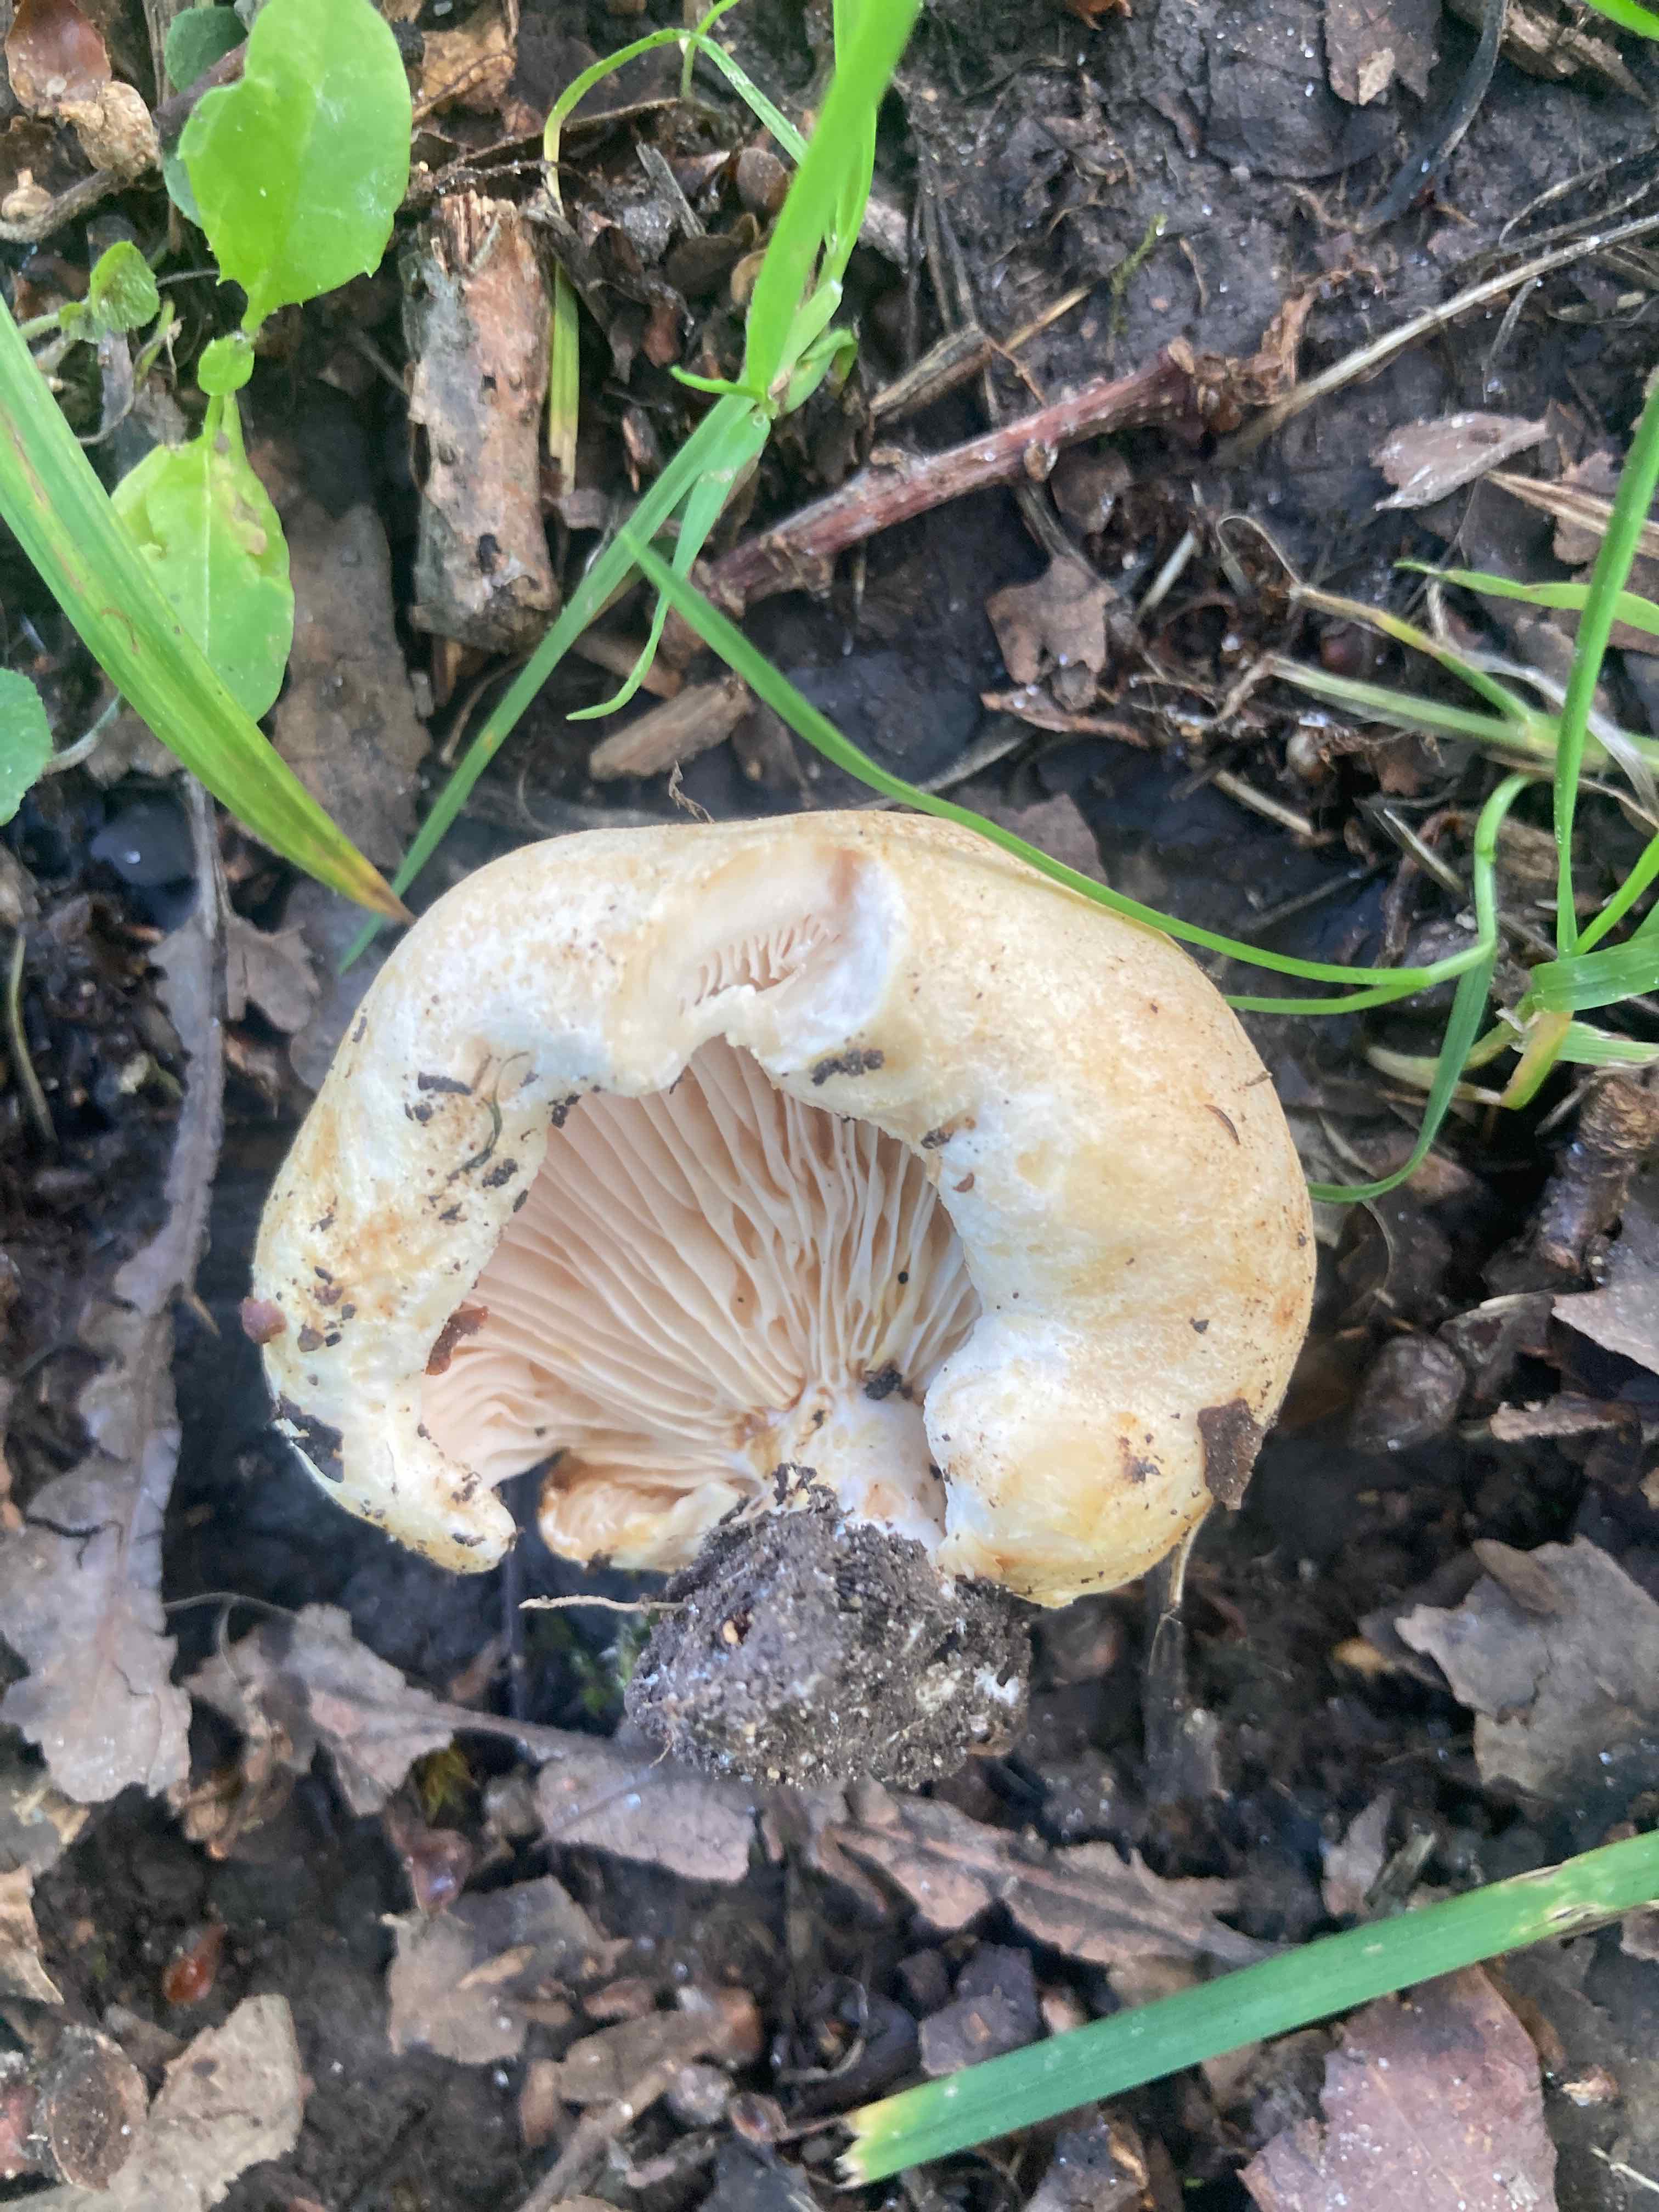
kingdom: Fungi
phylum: Basidiomycota
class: Agaricomycetes
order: Russulales
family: Russulaceae
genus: Lactarius
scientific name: Lactarius acerrimus
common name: brændende mælkehat
